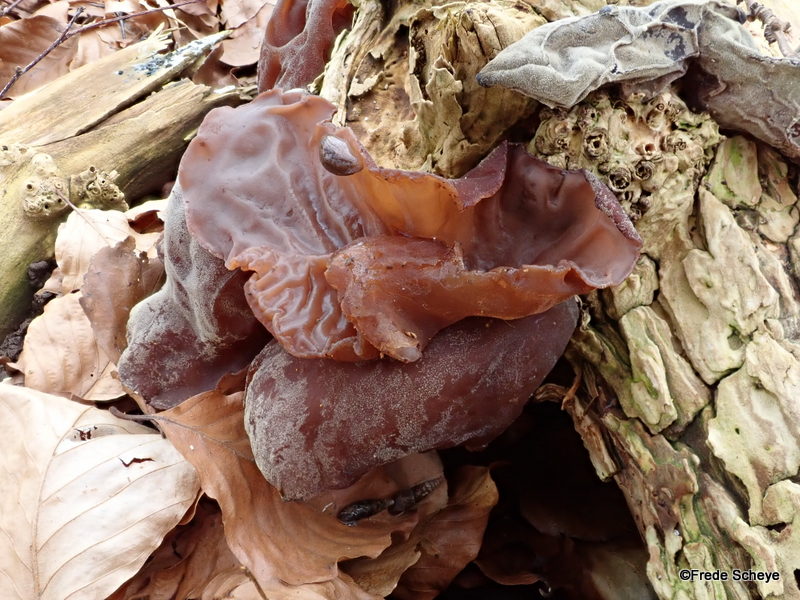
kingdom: Fungi
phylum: Basidiomycota
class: Agaricomycetes
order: Auriculariales
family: Auriculariaceae
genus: Auricularia
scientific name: Auricularia auricula-judae
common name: almindelig judasøre
